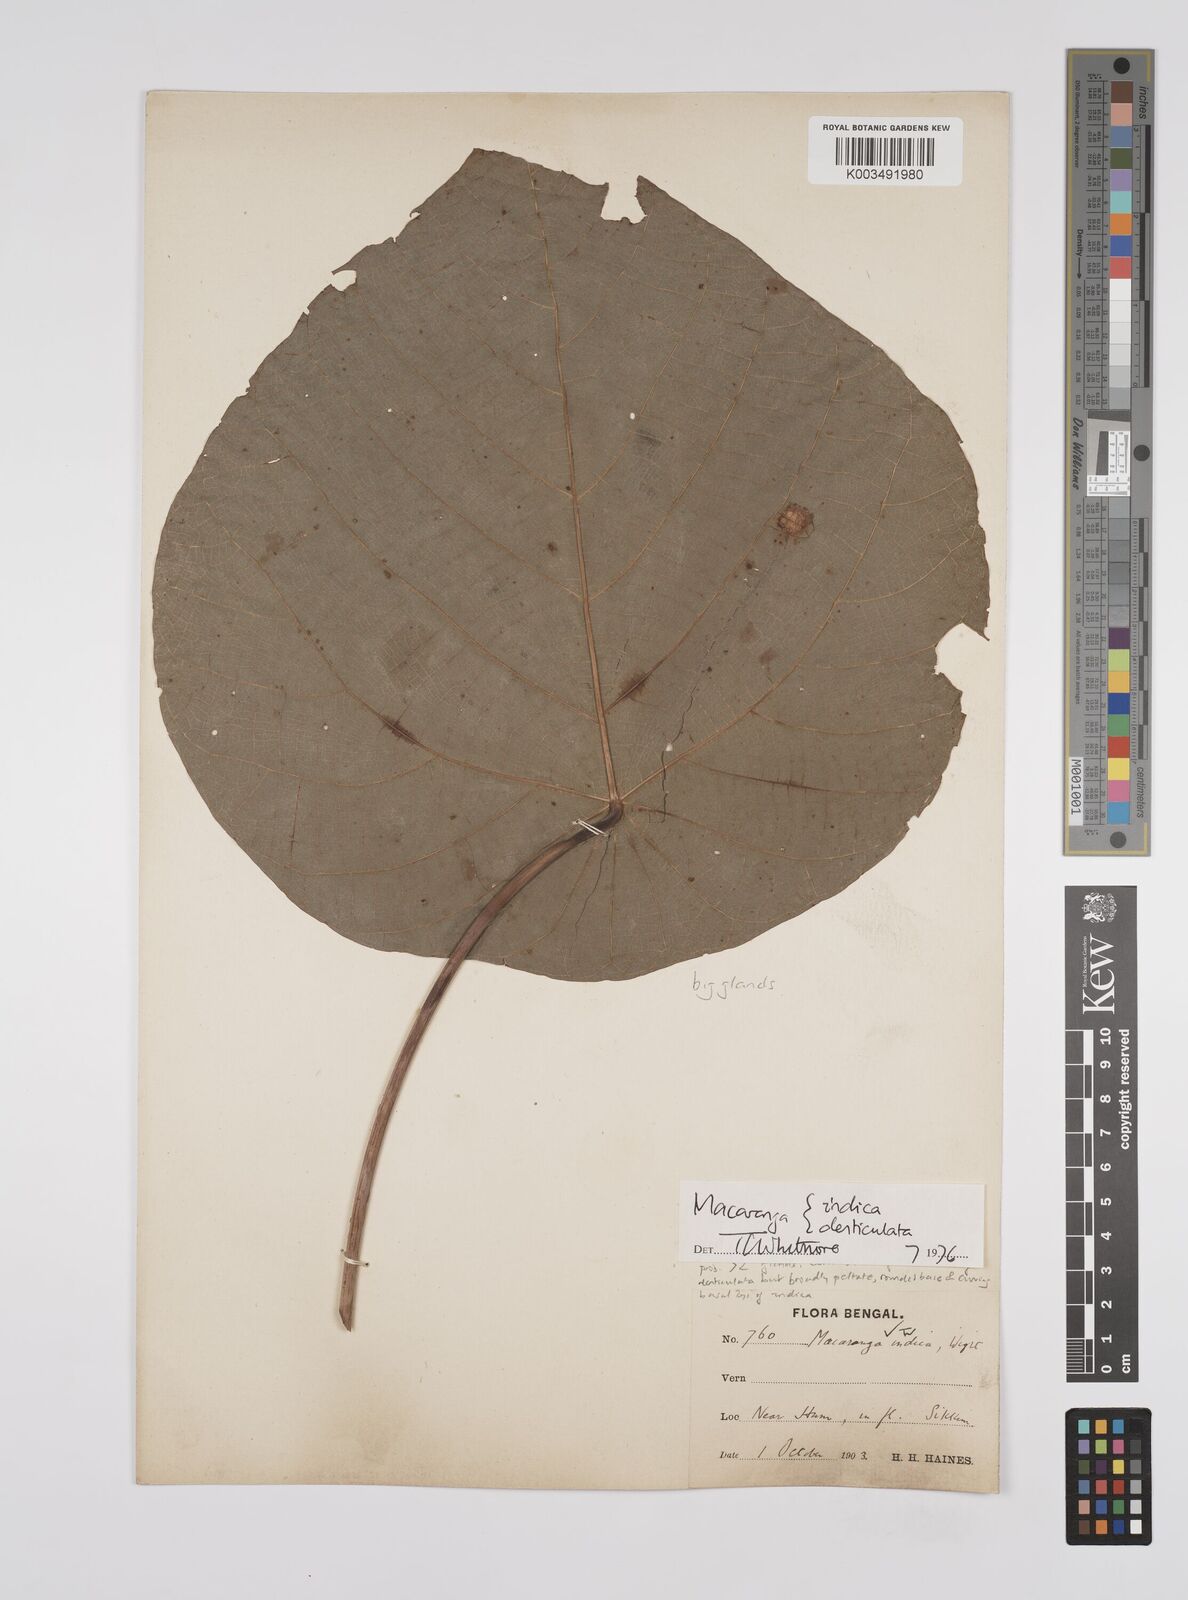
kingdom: Plantae
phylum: Tracheophyta
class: Magnoliopsida
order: Malpighiales
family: Euphorbiaceae
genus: Macaranga
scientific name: Macaranga indica
